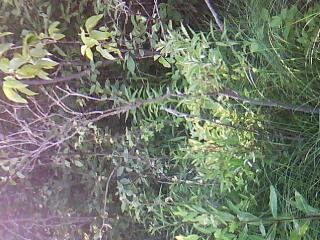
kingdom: Plantae
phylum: Tracheophyta
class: Magnoliopsida
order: Rosales
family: Rosaceae
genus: Dasiphora
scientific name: Dasiphora fruticosa
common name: Shrubby cinquefoil
